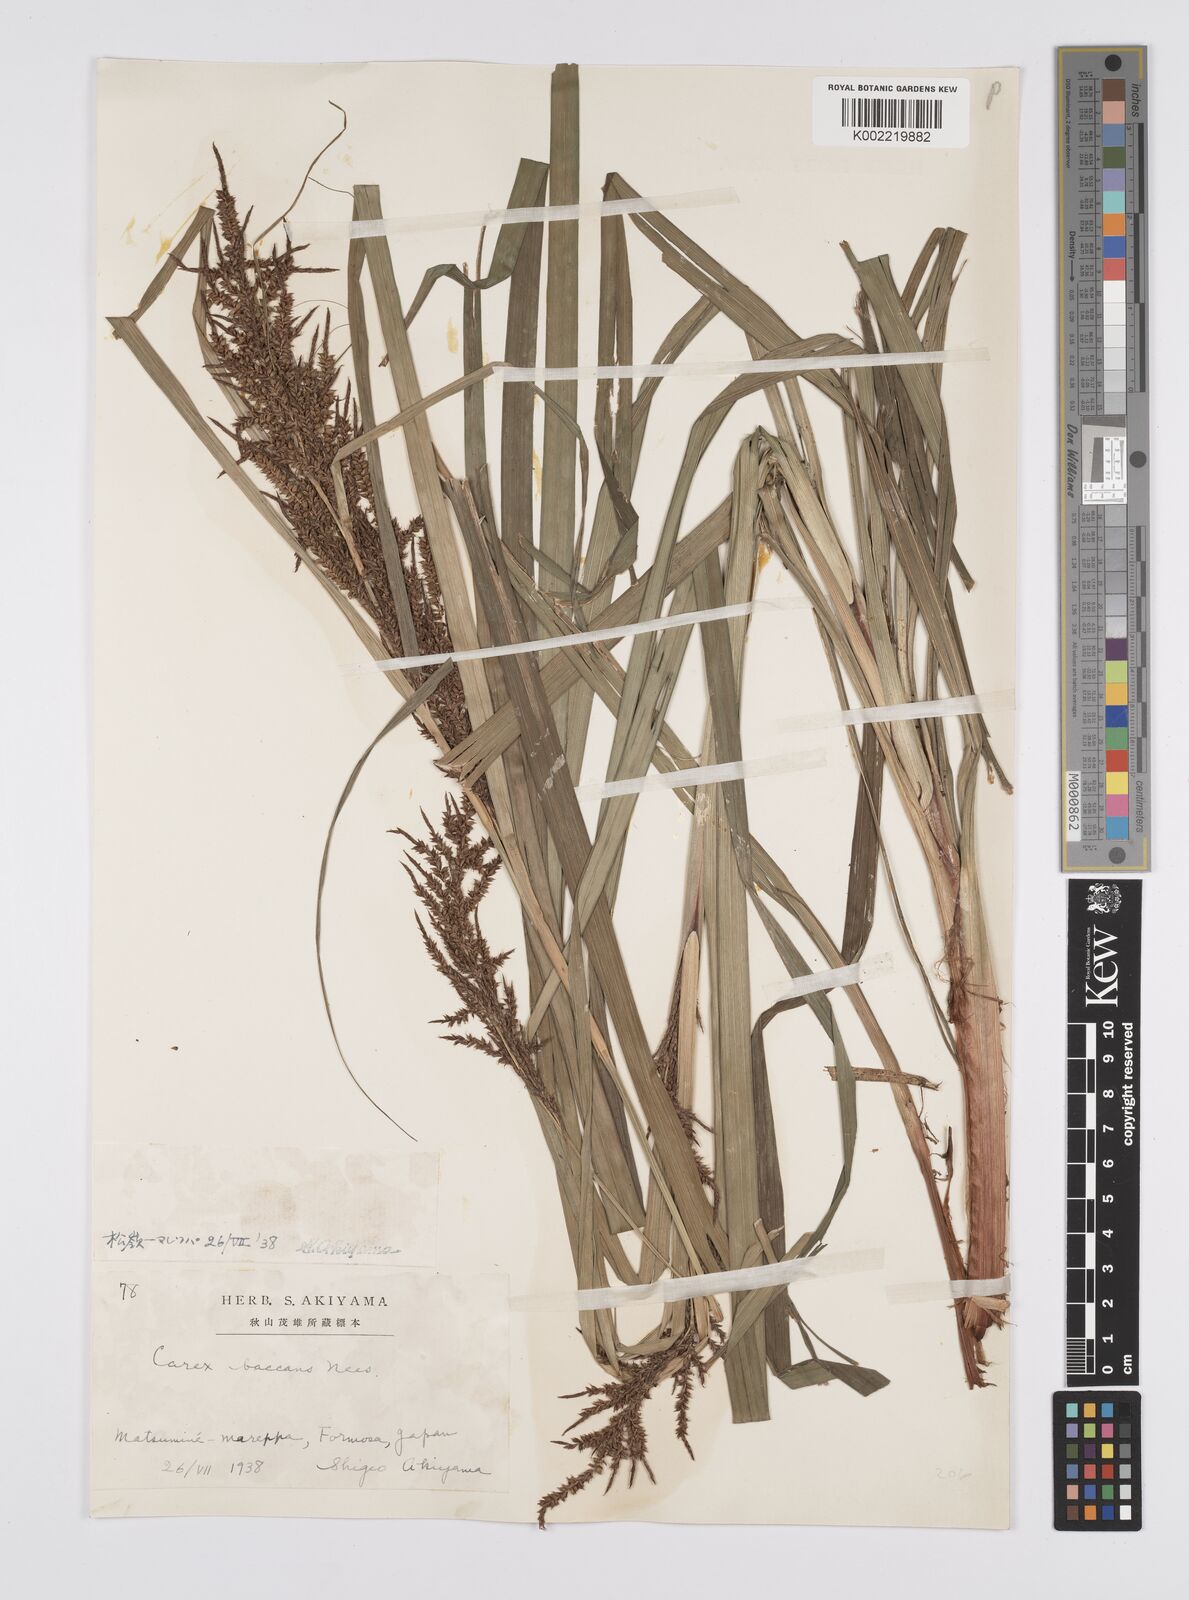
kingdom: Plantae
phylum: Tracheophyta
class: Liliopsida
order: Poales
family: Cyperaceae
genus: Carex
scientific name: Carex baccans
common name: Crimson seeded sedge
